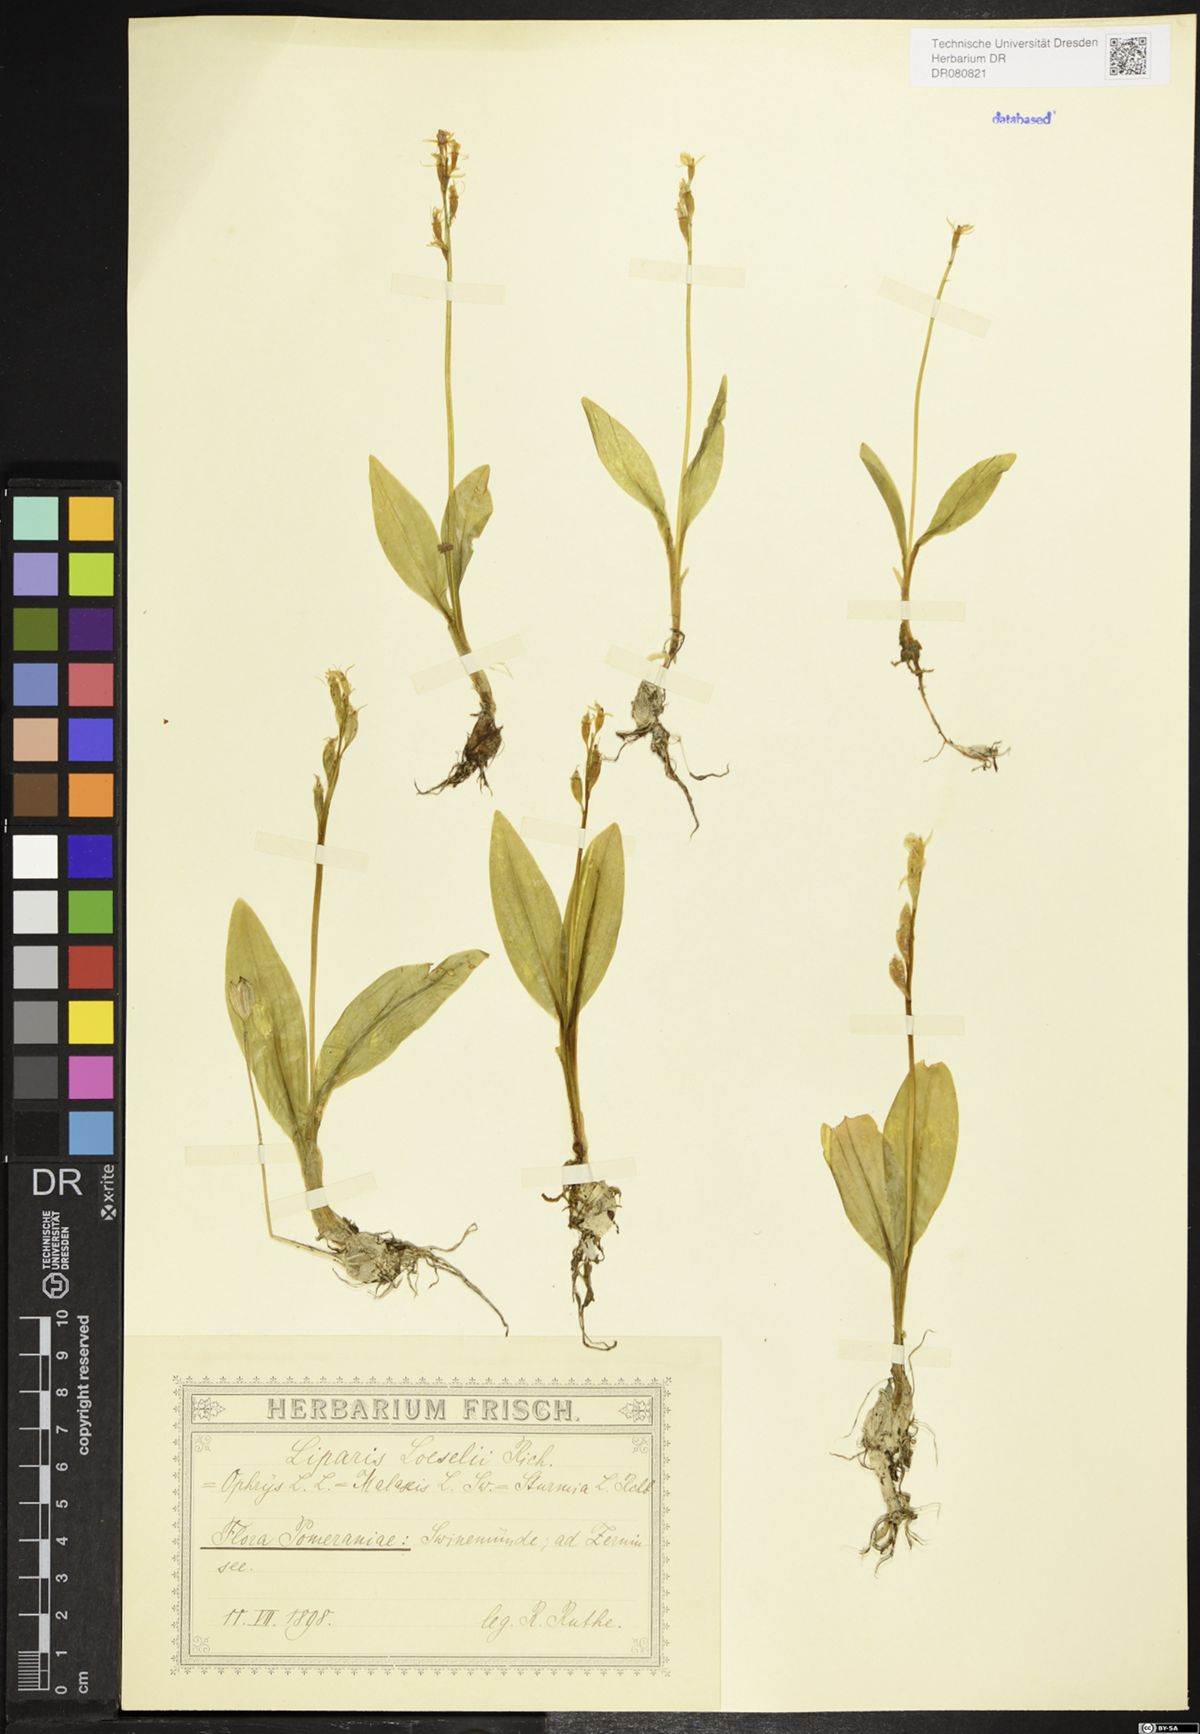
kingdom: Animalia
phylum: Arthropoda
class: Insecta
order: Coleoptera
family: Curculionidae
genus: Liparis
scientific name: Liparis loeselii
